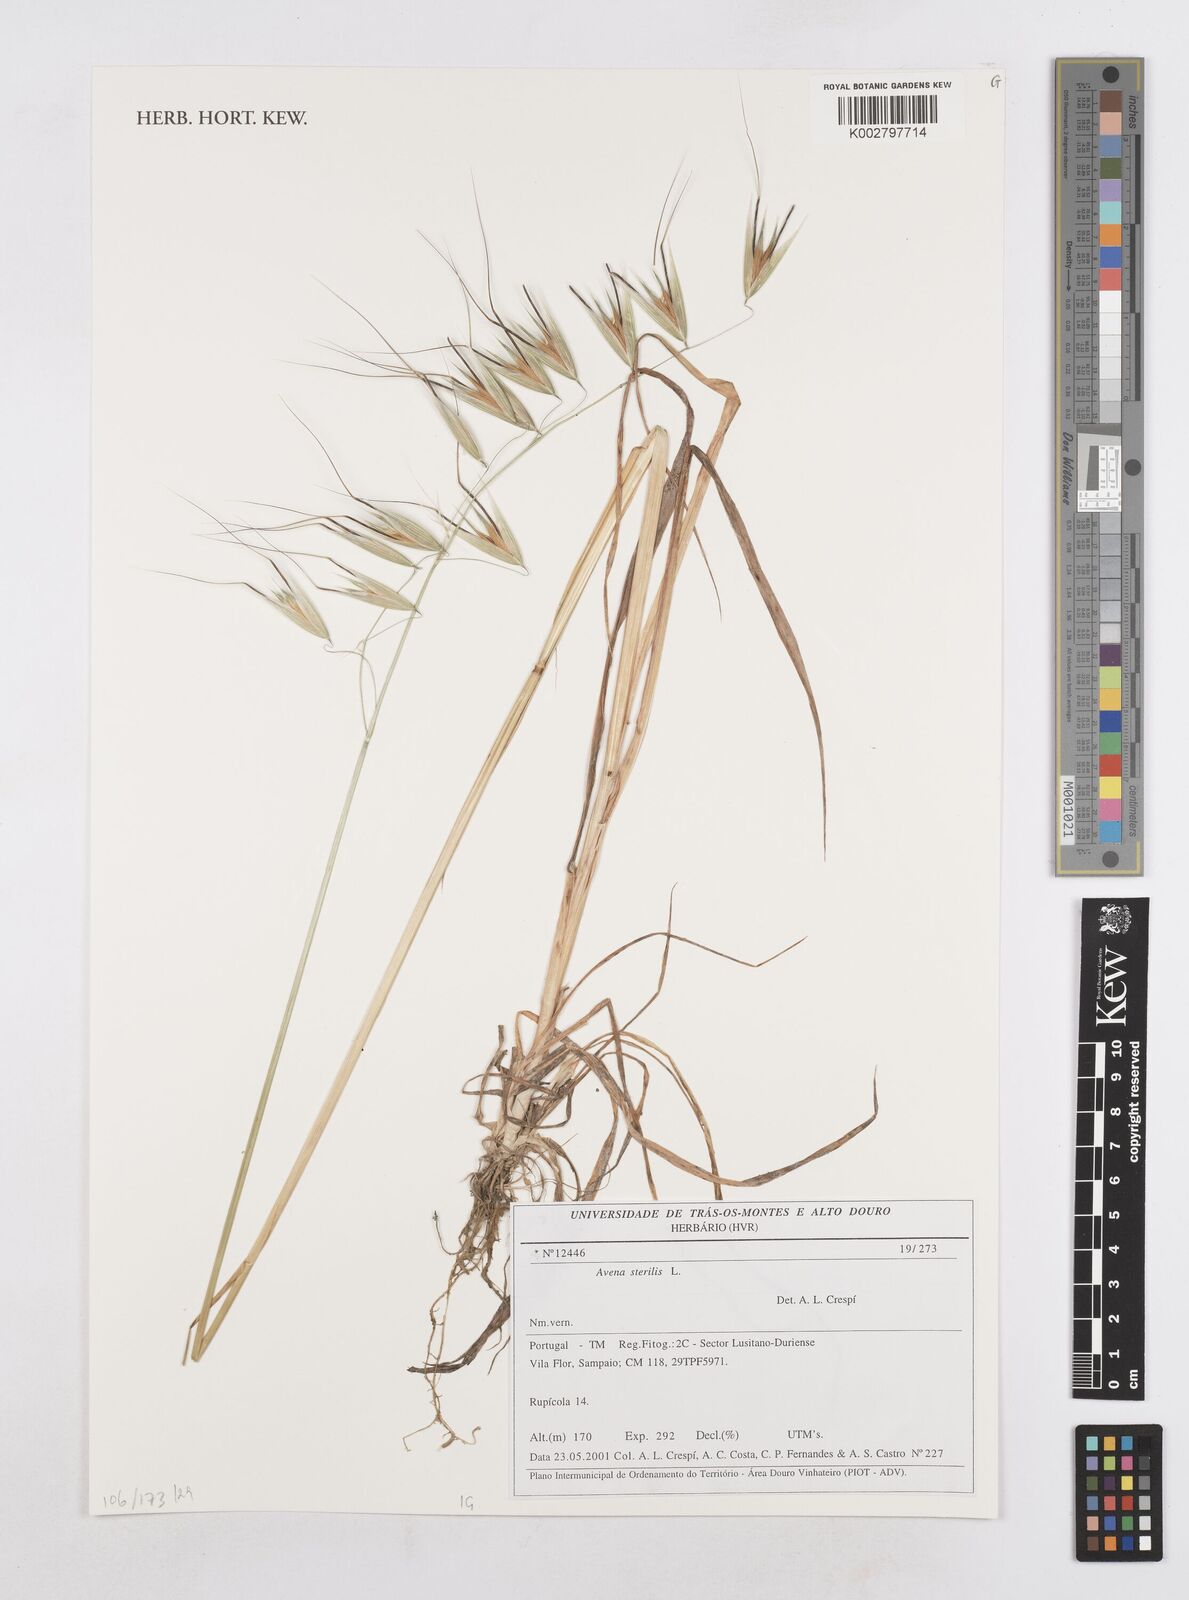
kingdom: Plantae
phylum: Tracheophyta
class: Liliopsida
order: Poales
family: Poaceae
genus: Avena
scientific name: Avena sterilis
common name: Animated oat
